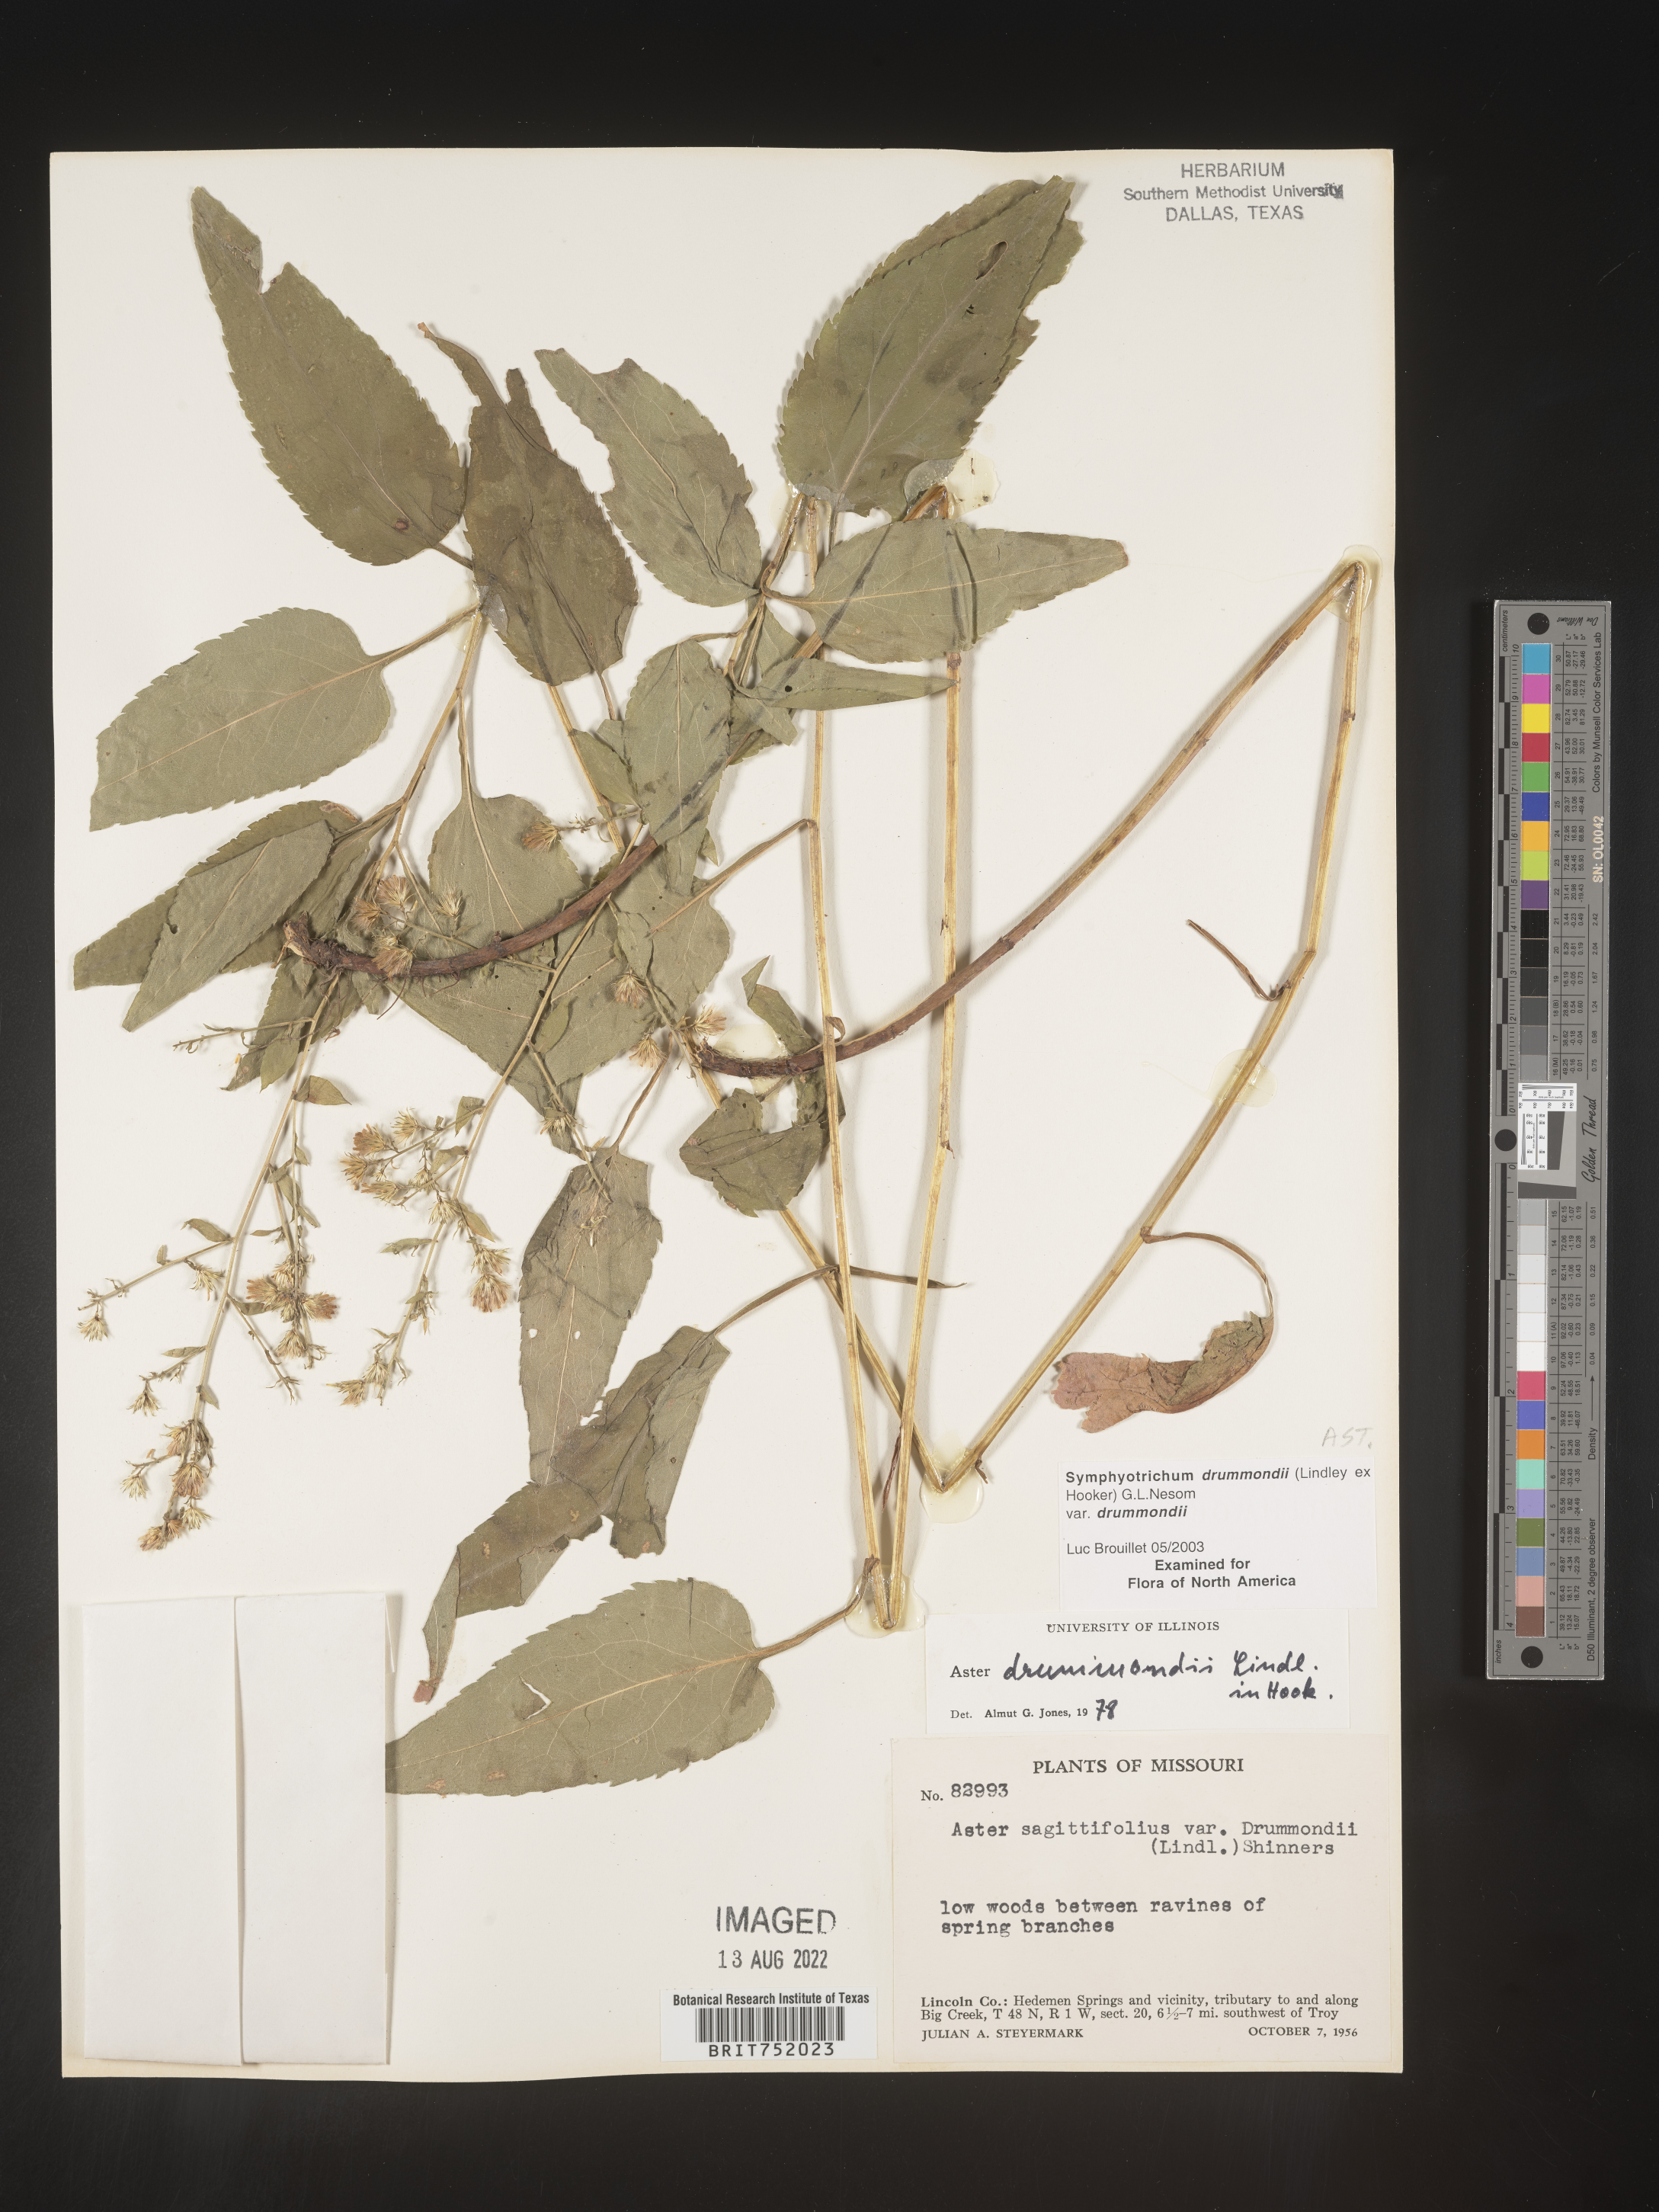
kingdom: Plantae
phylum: Tracheophyta
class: Magnoliopsida
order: Asterales
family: Asteraceae
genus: Symphyotrichum
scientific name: Symphyotrichum drummondii
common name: Drummond's aster
